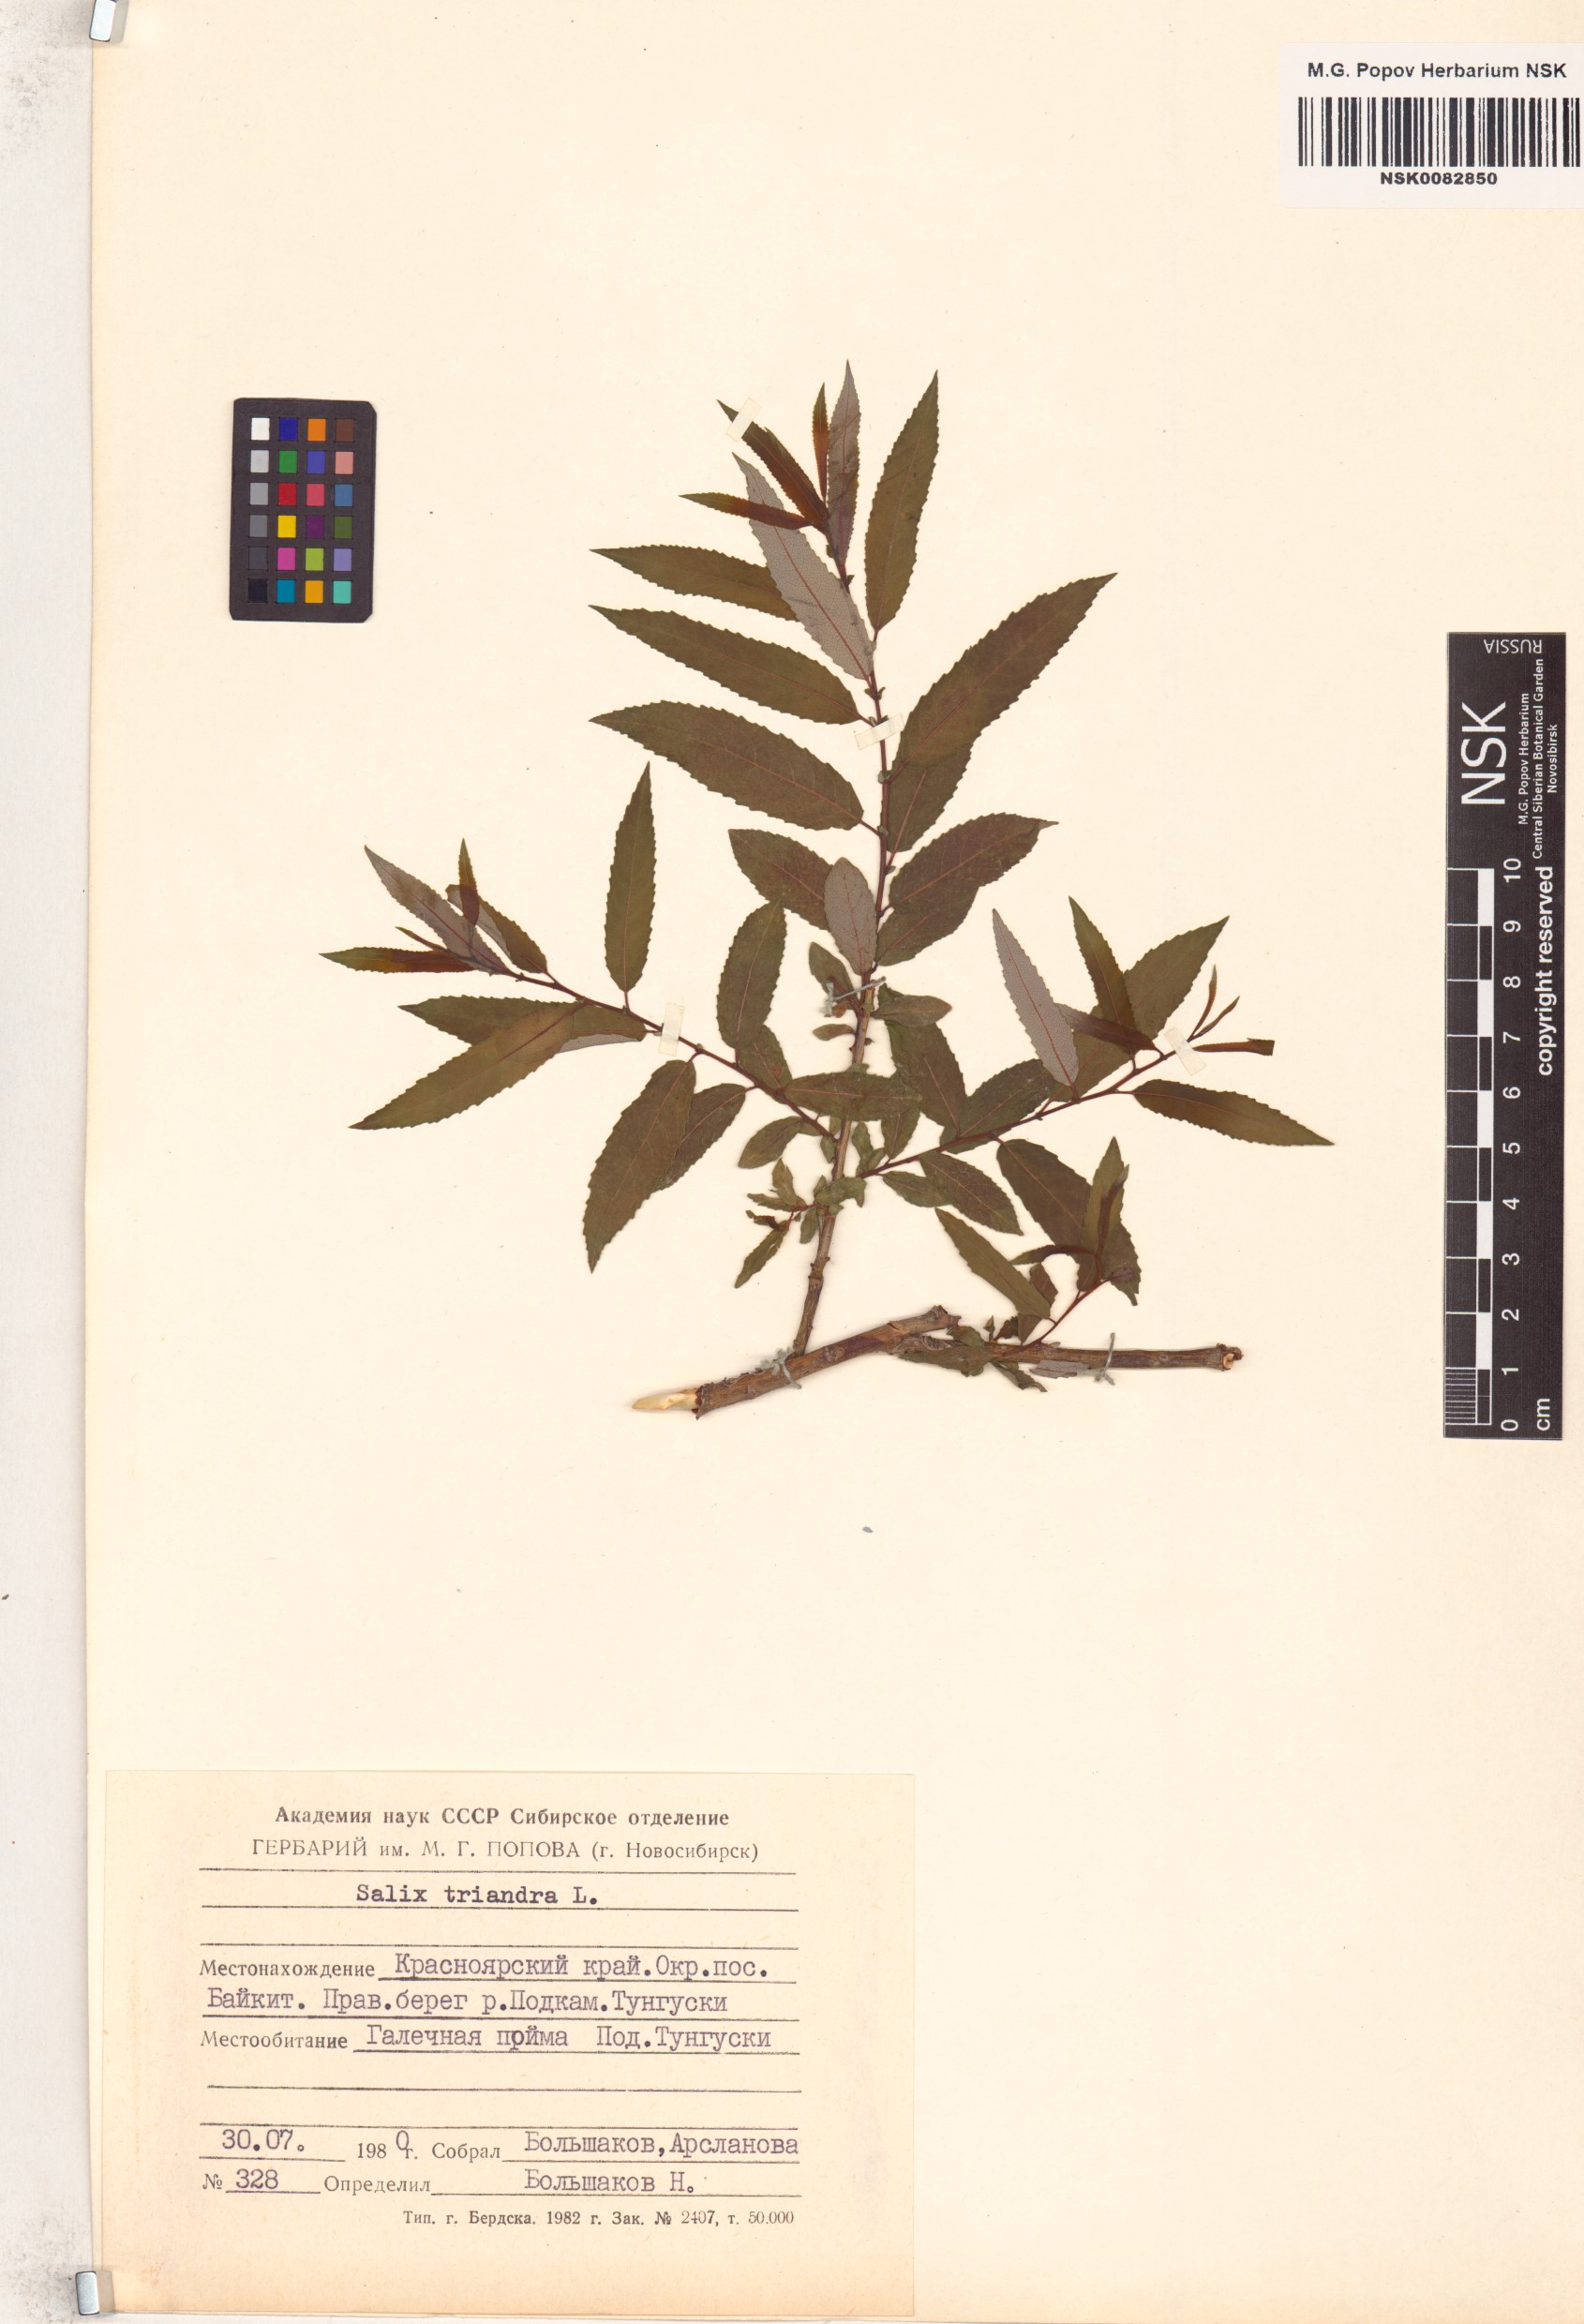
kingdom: Plantae
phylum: Tracheophyta
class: Magnoliopsida
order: Malpighiales
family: Salicaceae
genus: Salix
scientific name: Salix triandra
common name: Almond willow
